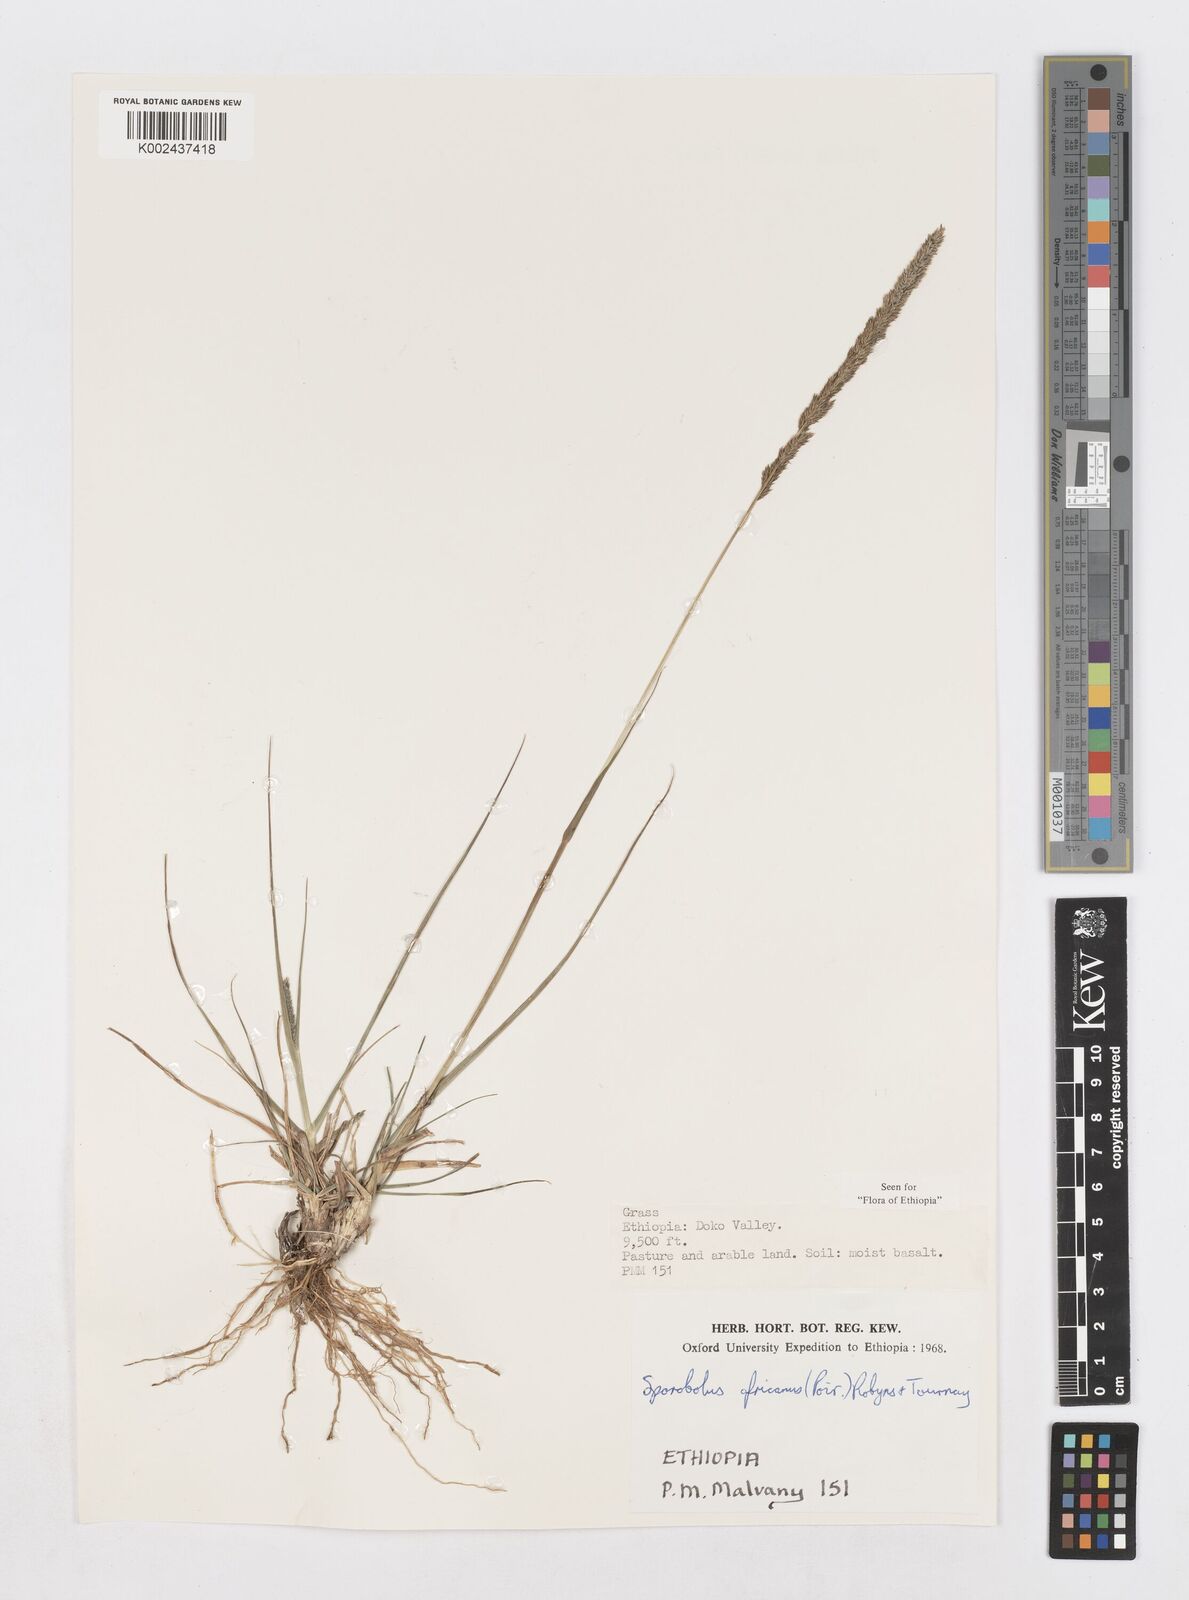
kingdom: Plantae
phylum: Tracheophyta
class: Liliopsida
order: Poales
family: Poaceae
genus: Sporobolus
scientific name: Sporobolus africanus
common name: African dropseed
